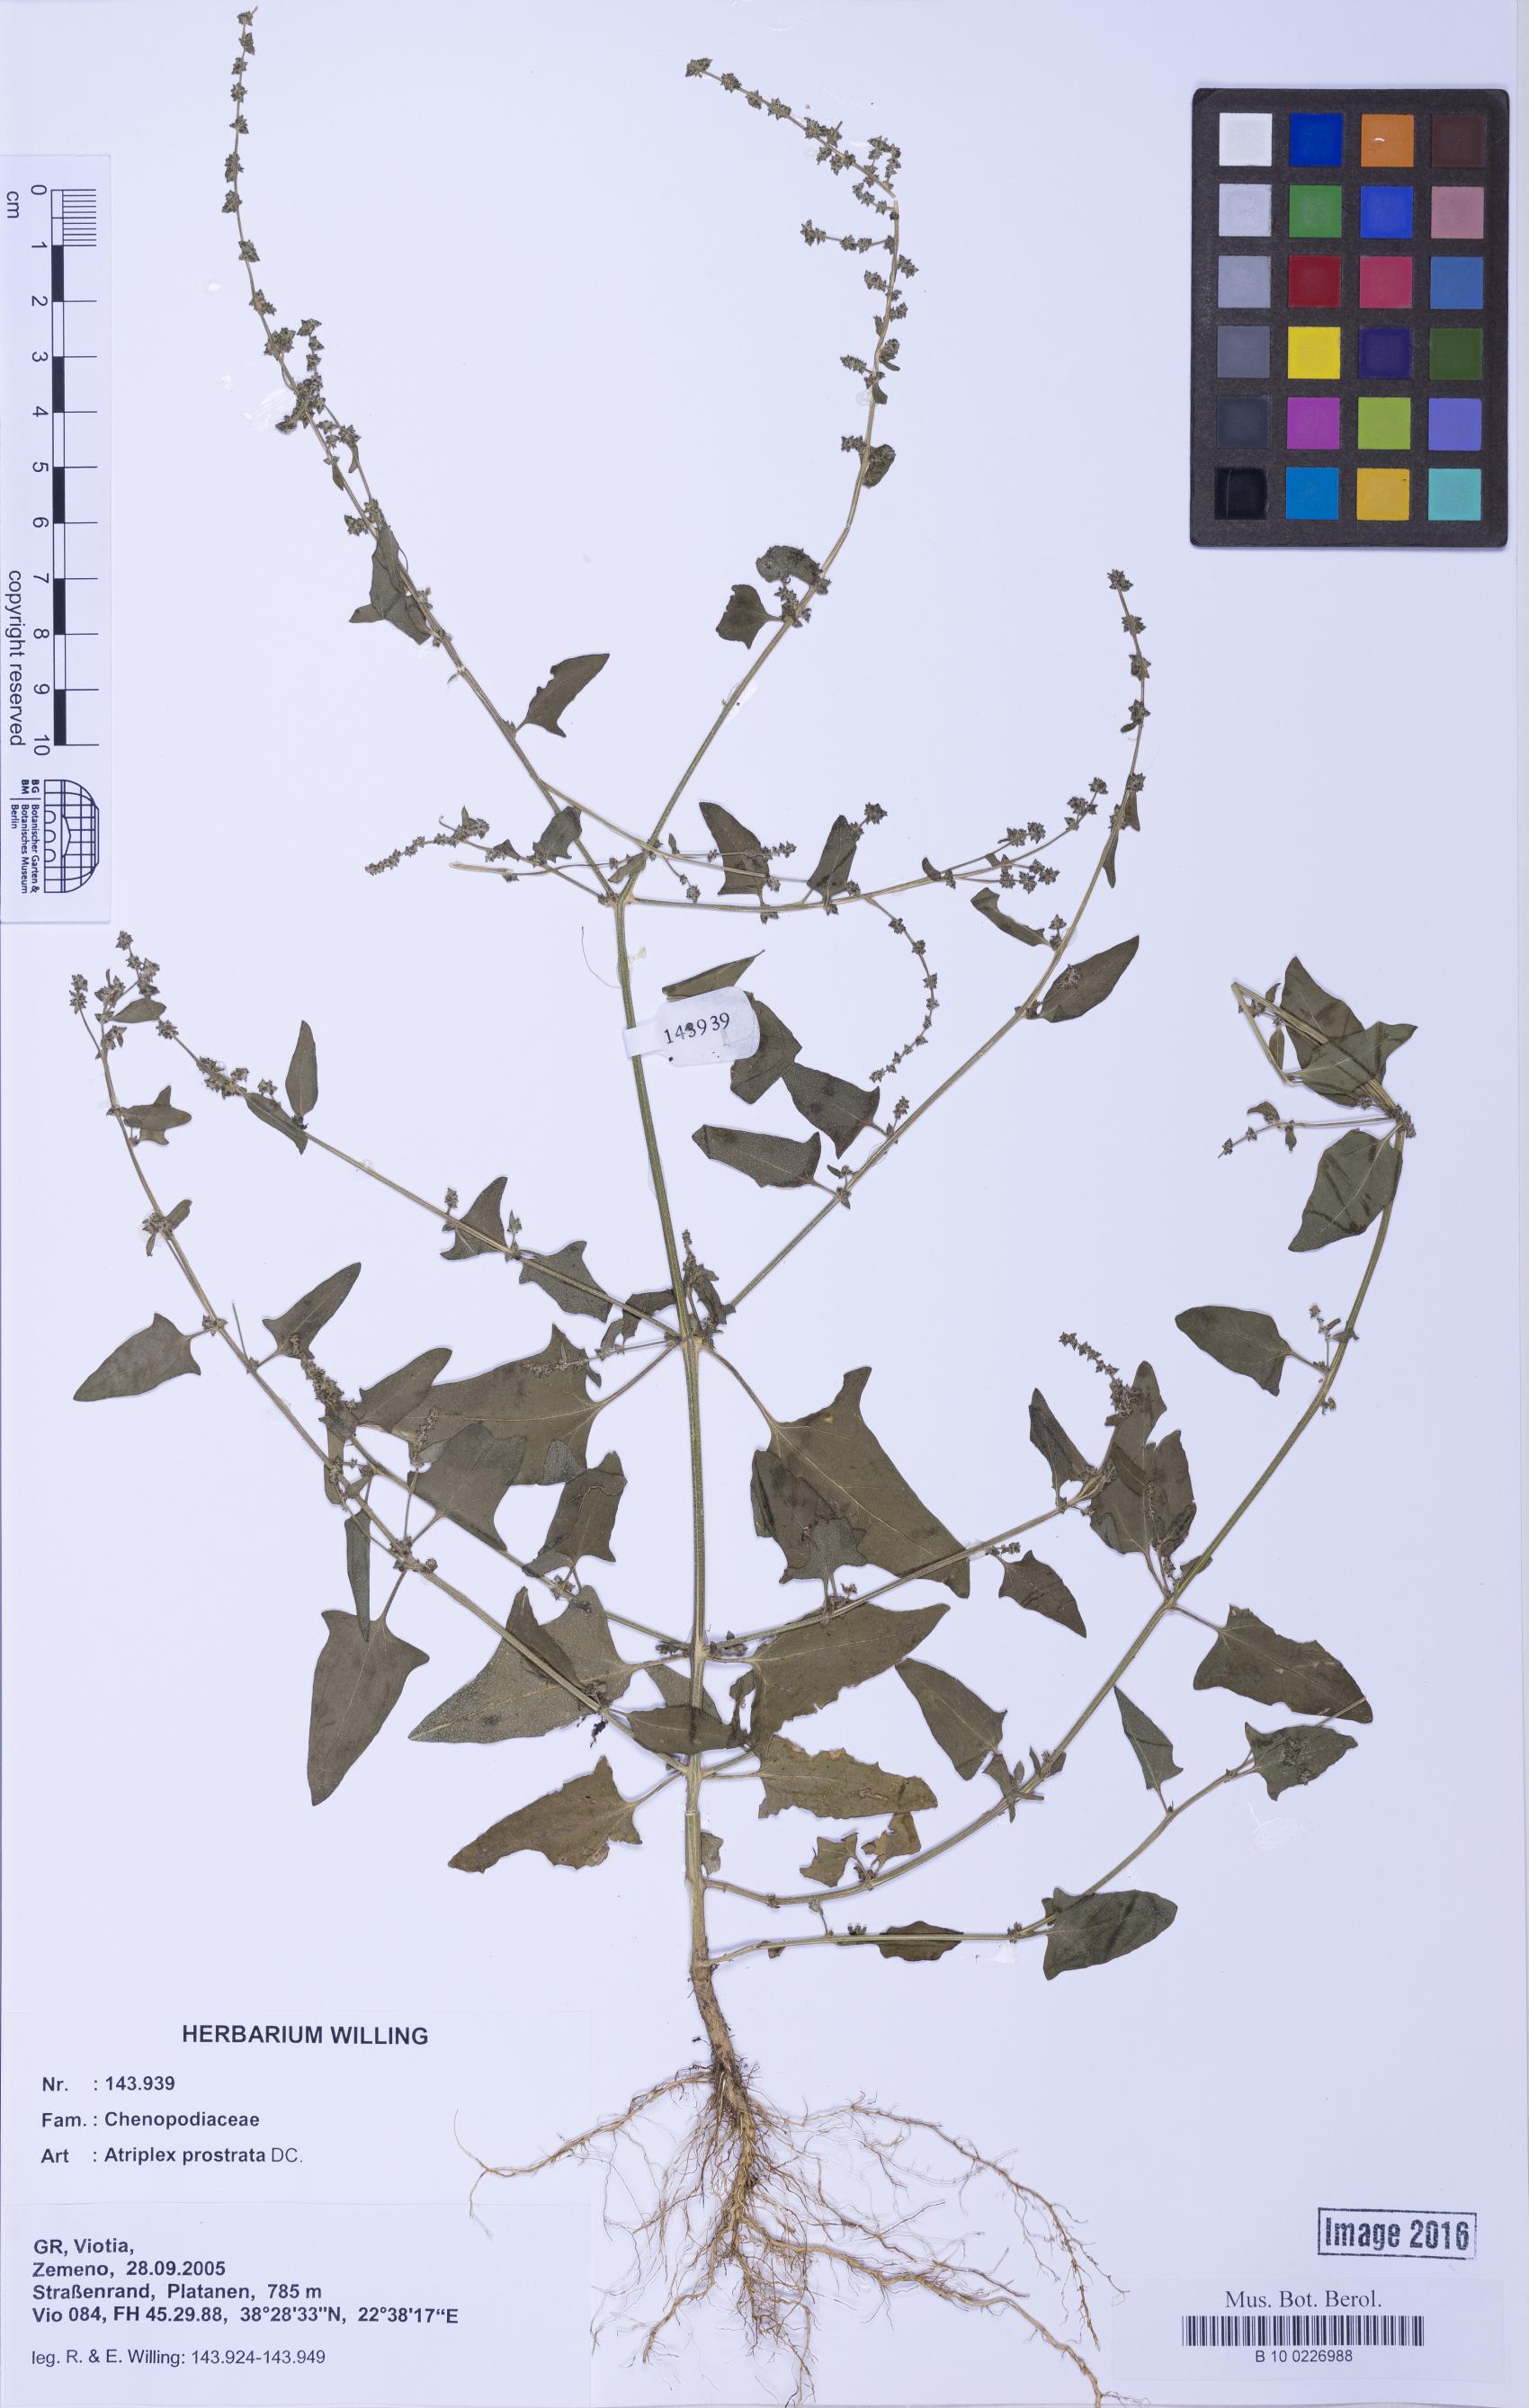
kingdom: Plantae
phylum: Tracheophyta
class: Magnoliopsida
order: Caryophyllales
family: Amaranthaceae
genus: Atriplex
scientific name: Atriplex prostrata
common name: Spear-leaved orache
